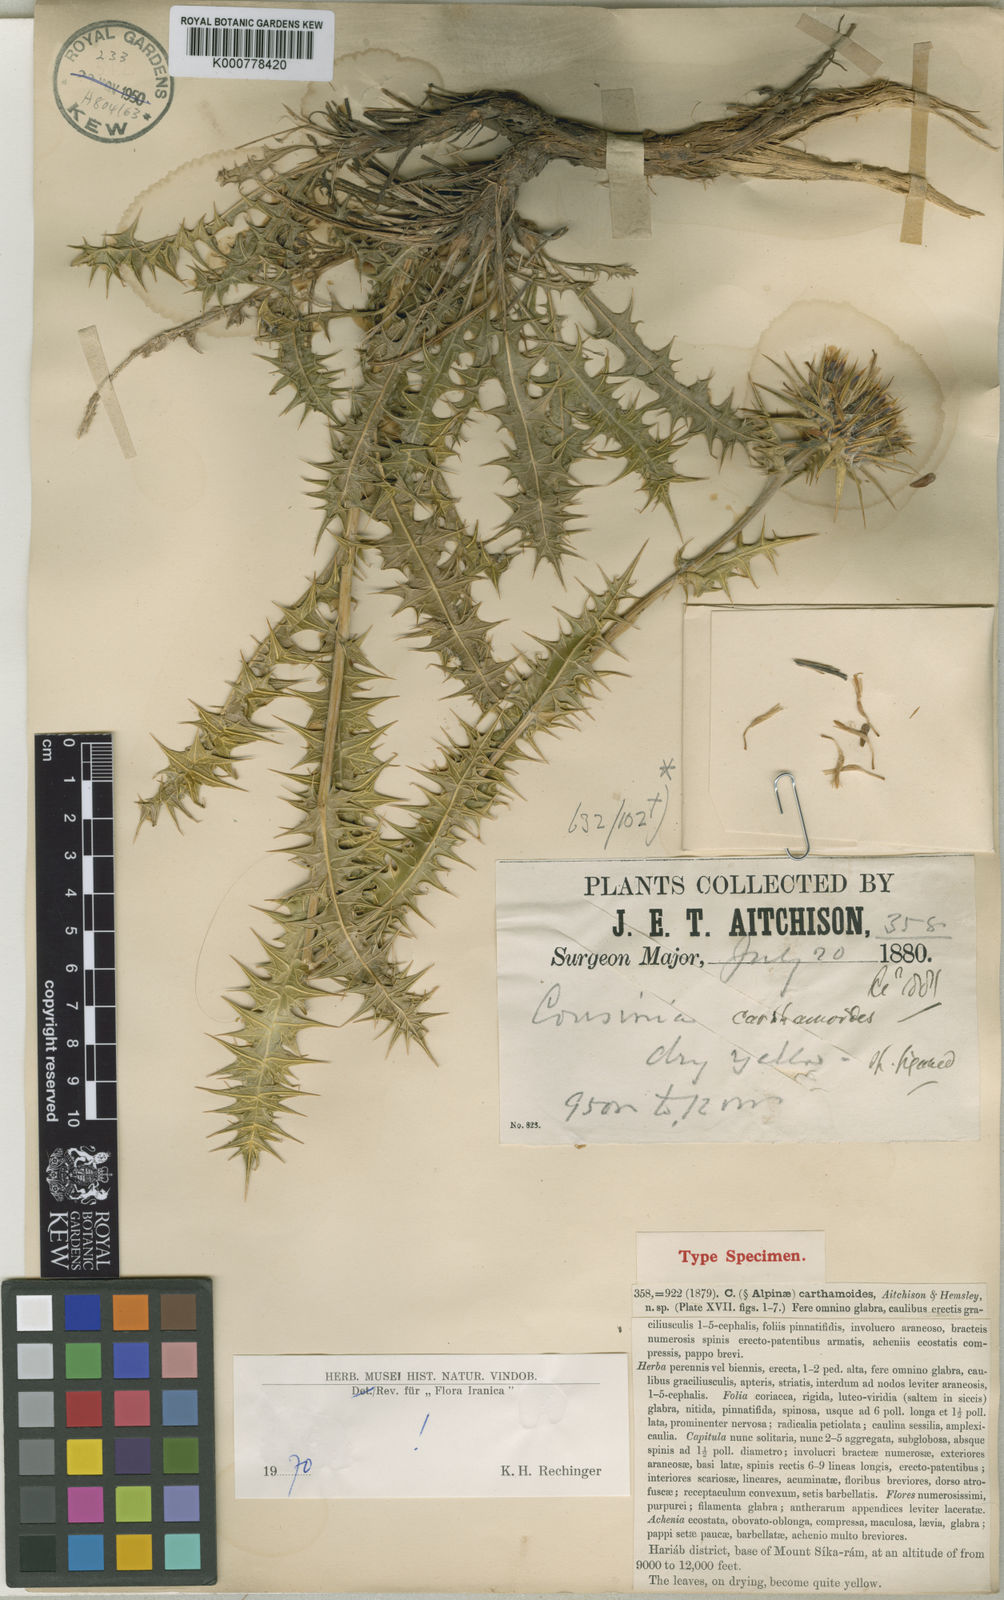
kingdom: Plantae
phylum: Tracheophyta
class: Magnoliopsida
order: Asterales
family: Asteraceae
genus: Cousinia
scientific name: Cousinia carthamoides
